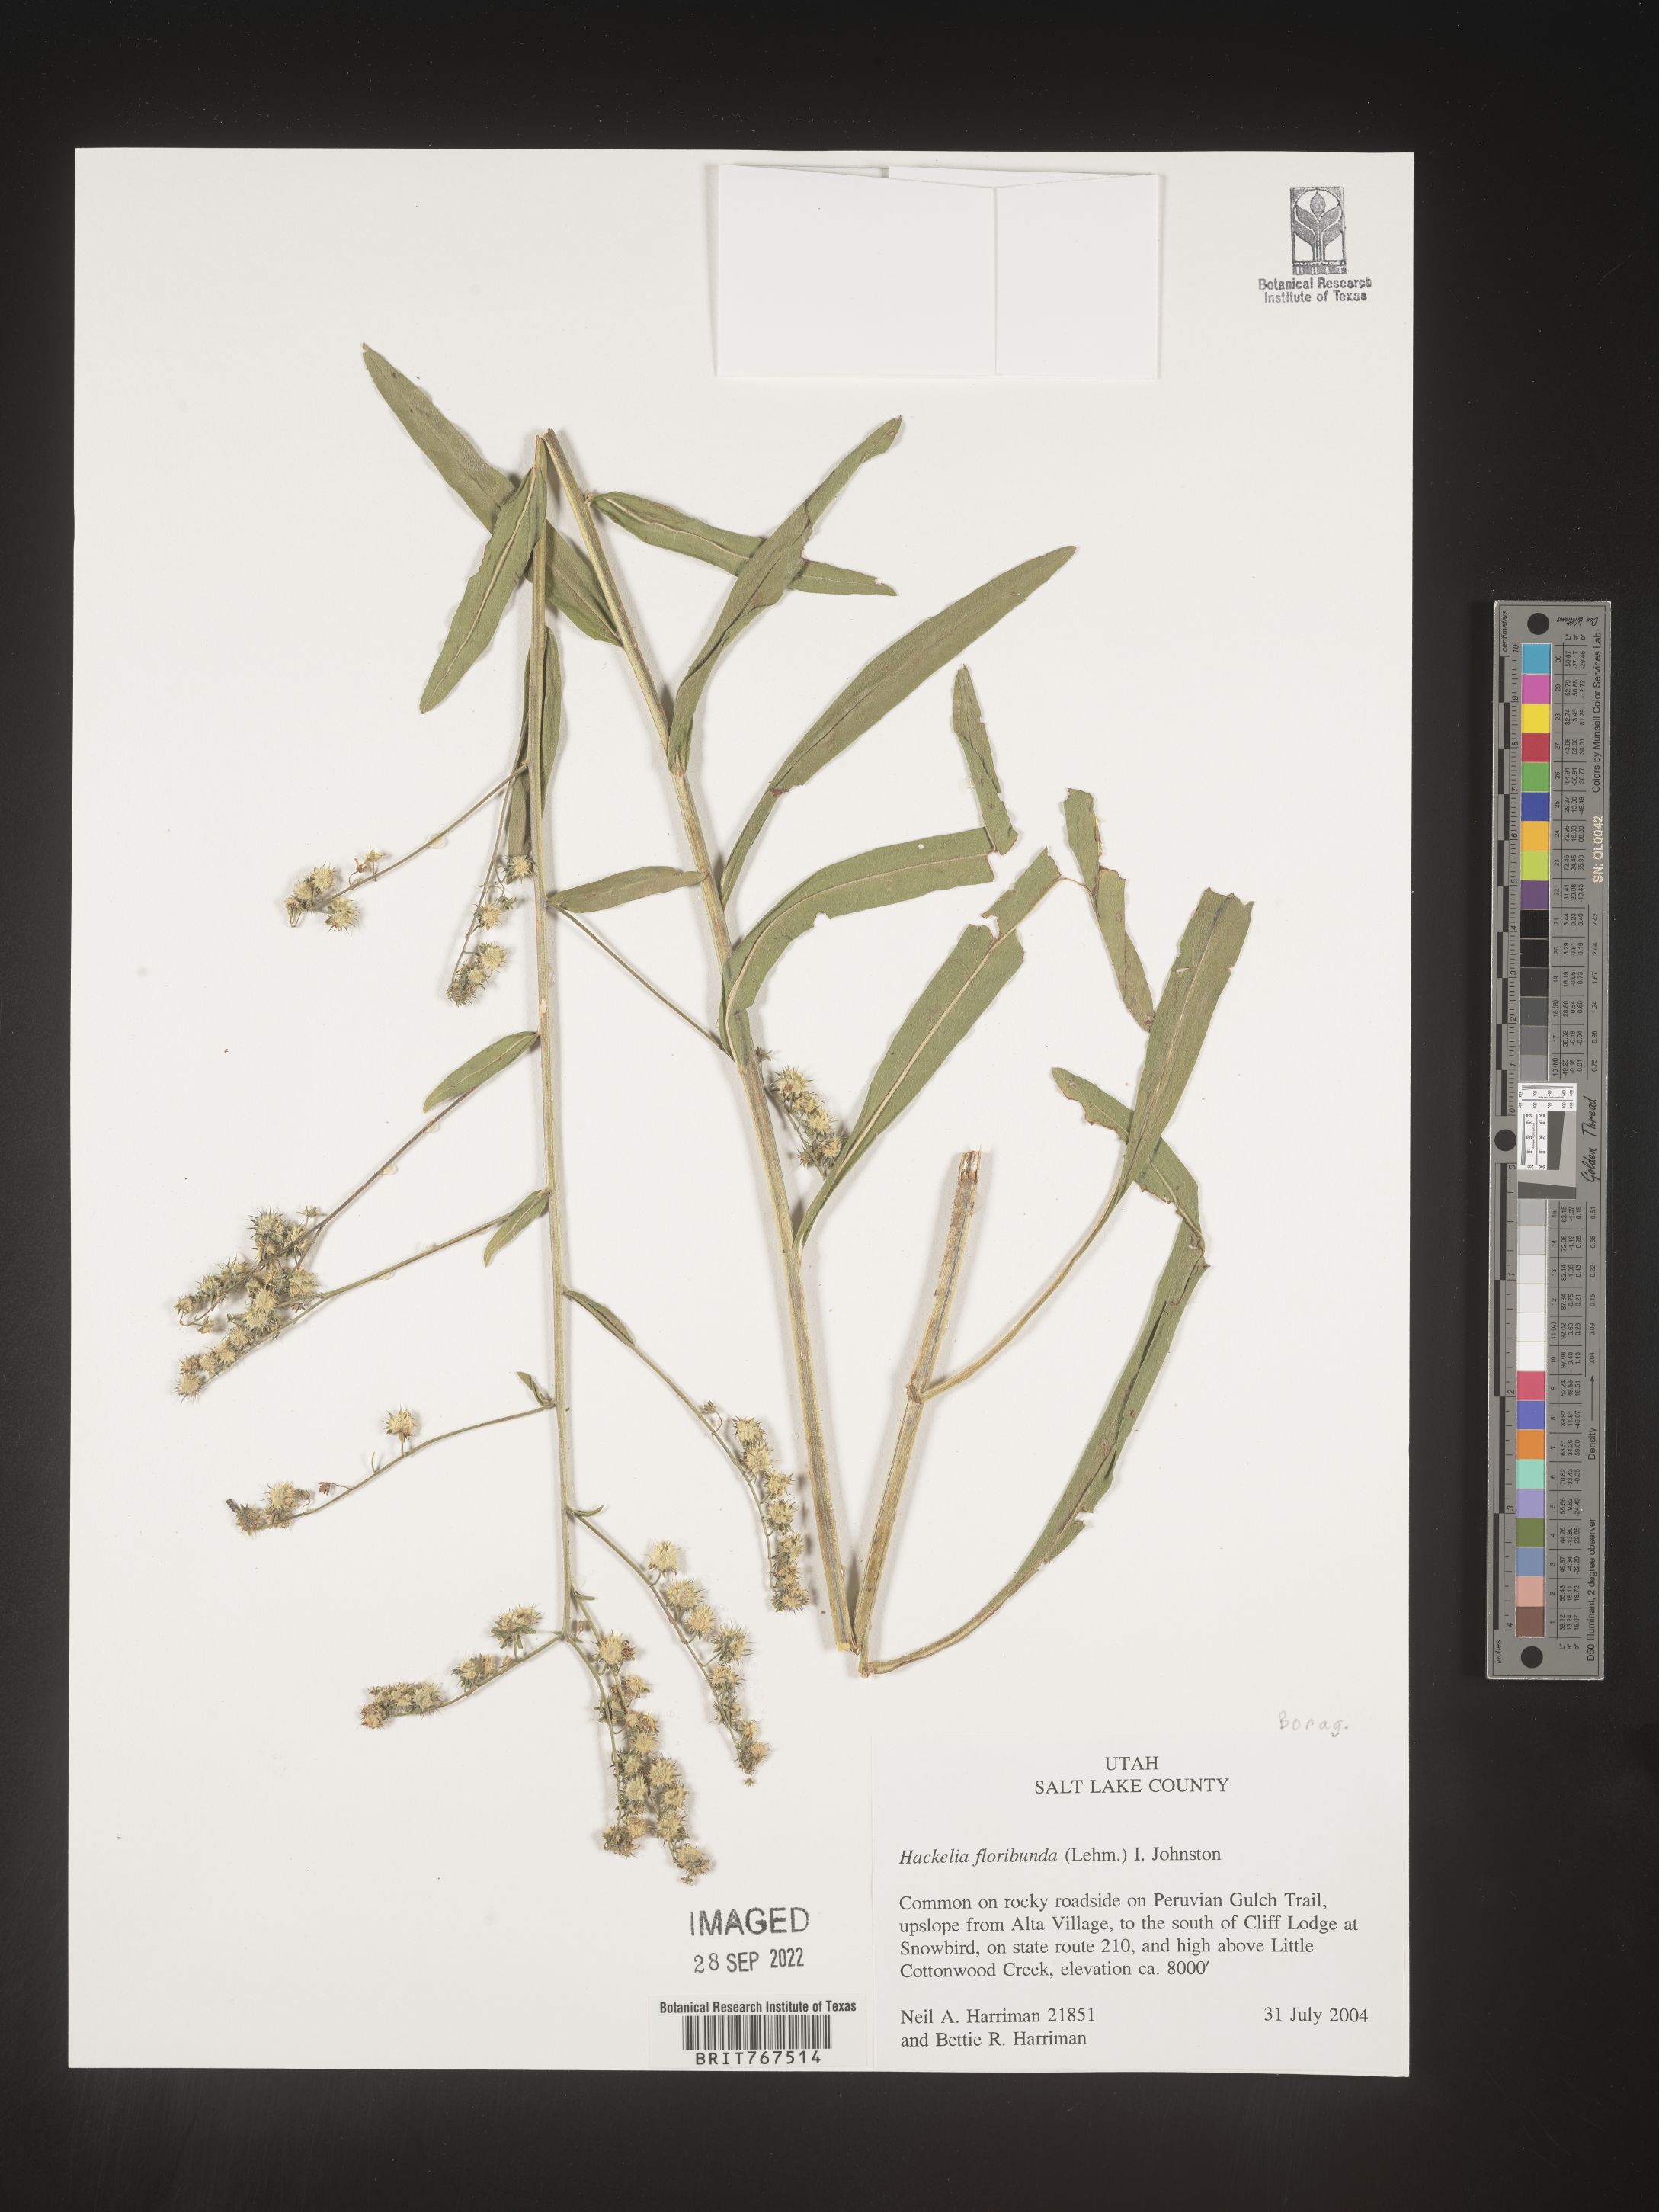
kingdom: Plantae
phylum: Tracheophyta
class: Magnoliopsida
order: Boraginales
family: Boraginaceae
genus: Hackelia
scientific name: Hackelia floribunda
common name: Large-flowered stickseed
